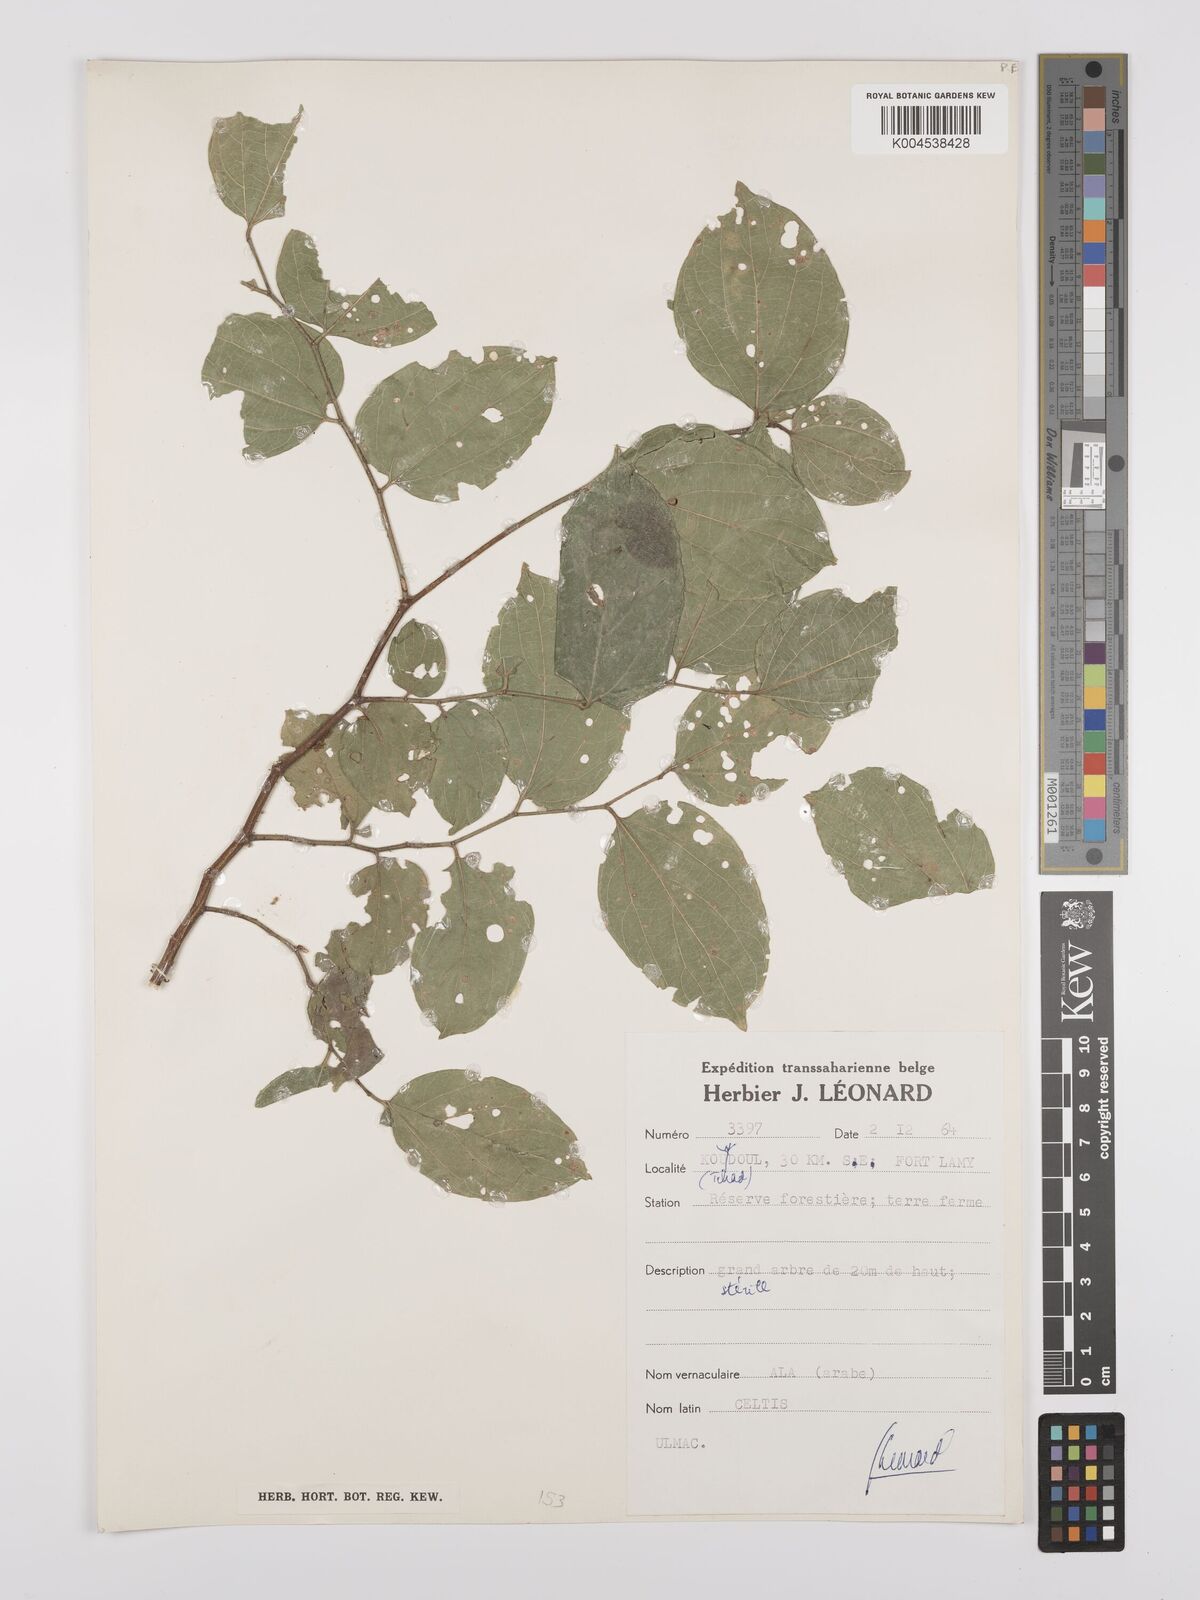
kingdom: Plantae
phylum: Tracheophyta
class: Magnoliopsida
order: Rosales
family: Cannabaceae
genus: Celtis
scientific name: Celtis
